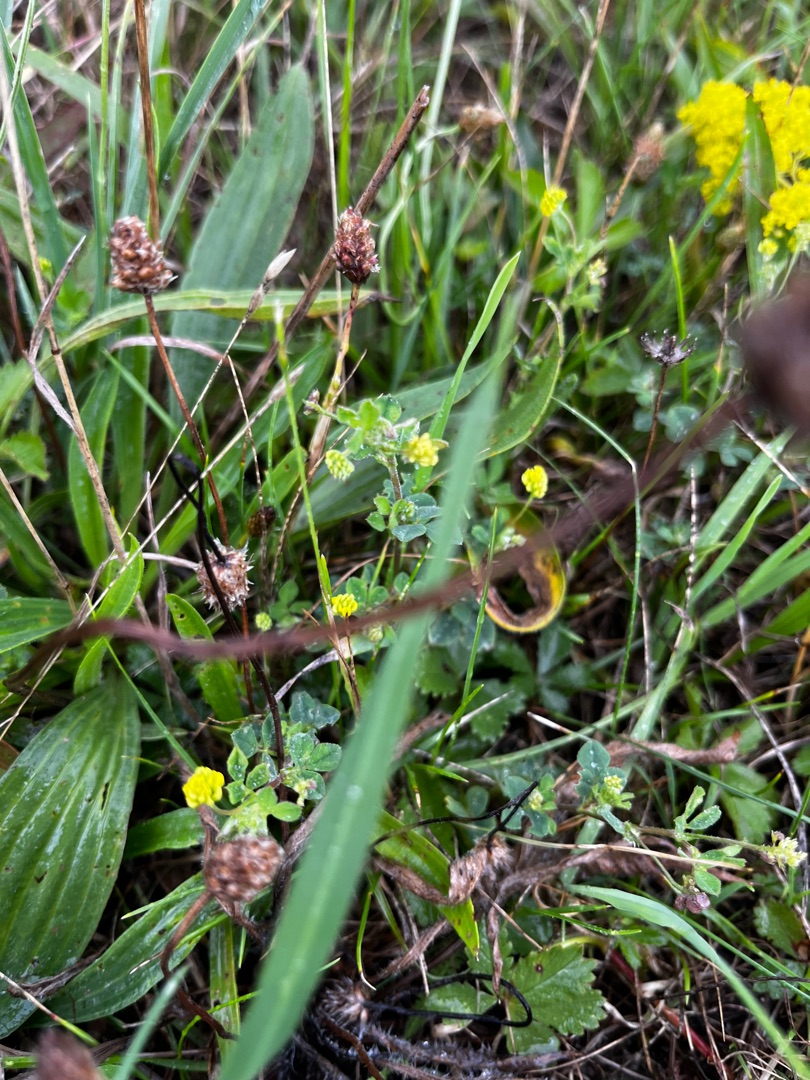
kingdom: Plantae
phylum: Tracheophyta
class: Magnoliopsida
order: Fabales
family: Fabaceae
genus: Medicago
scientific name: Medicago lupulina
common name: Humle-sneglebælg
